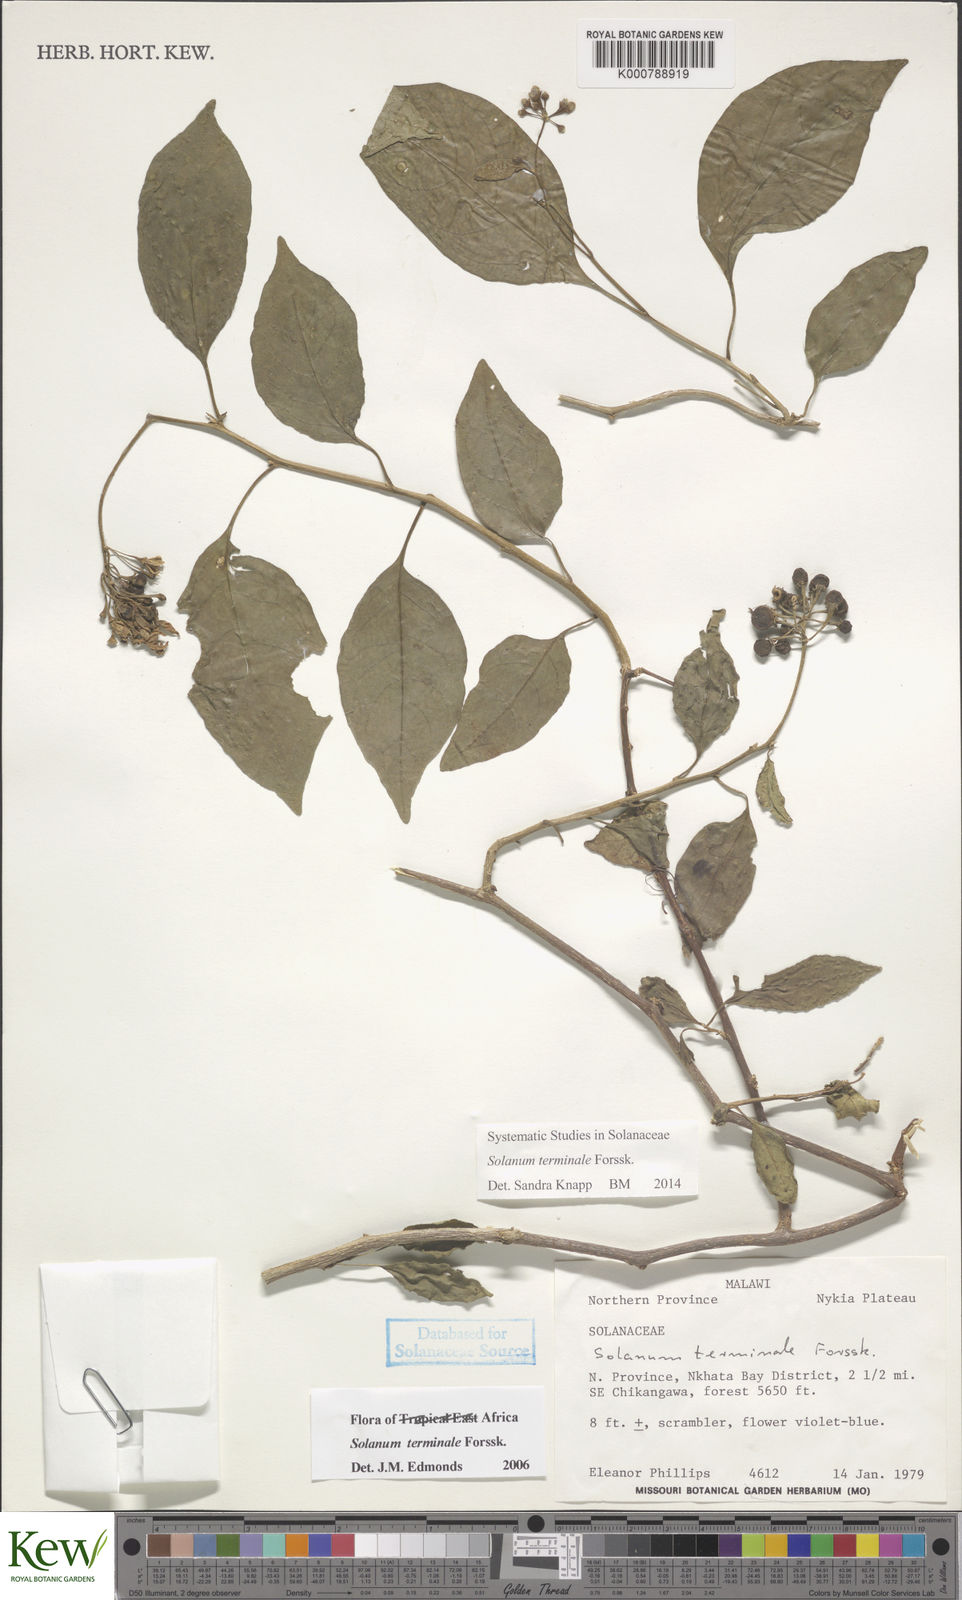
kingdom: Plantae
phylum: Tracheophyta
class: Magnoliopsida
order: Solanales
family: Solanaceae
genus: Solanum
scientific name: Solanum terminale
